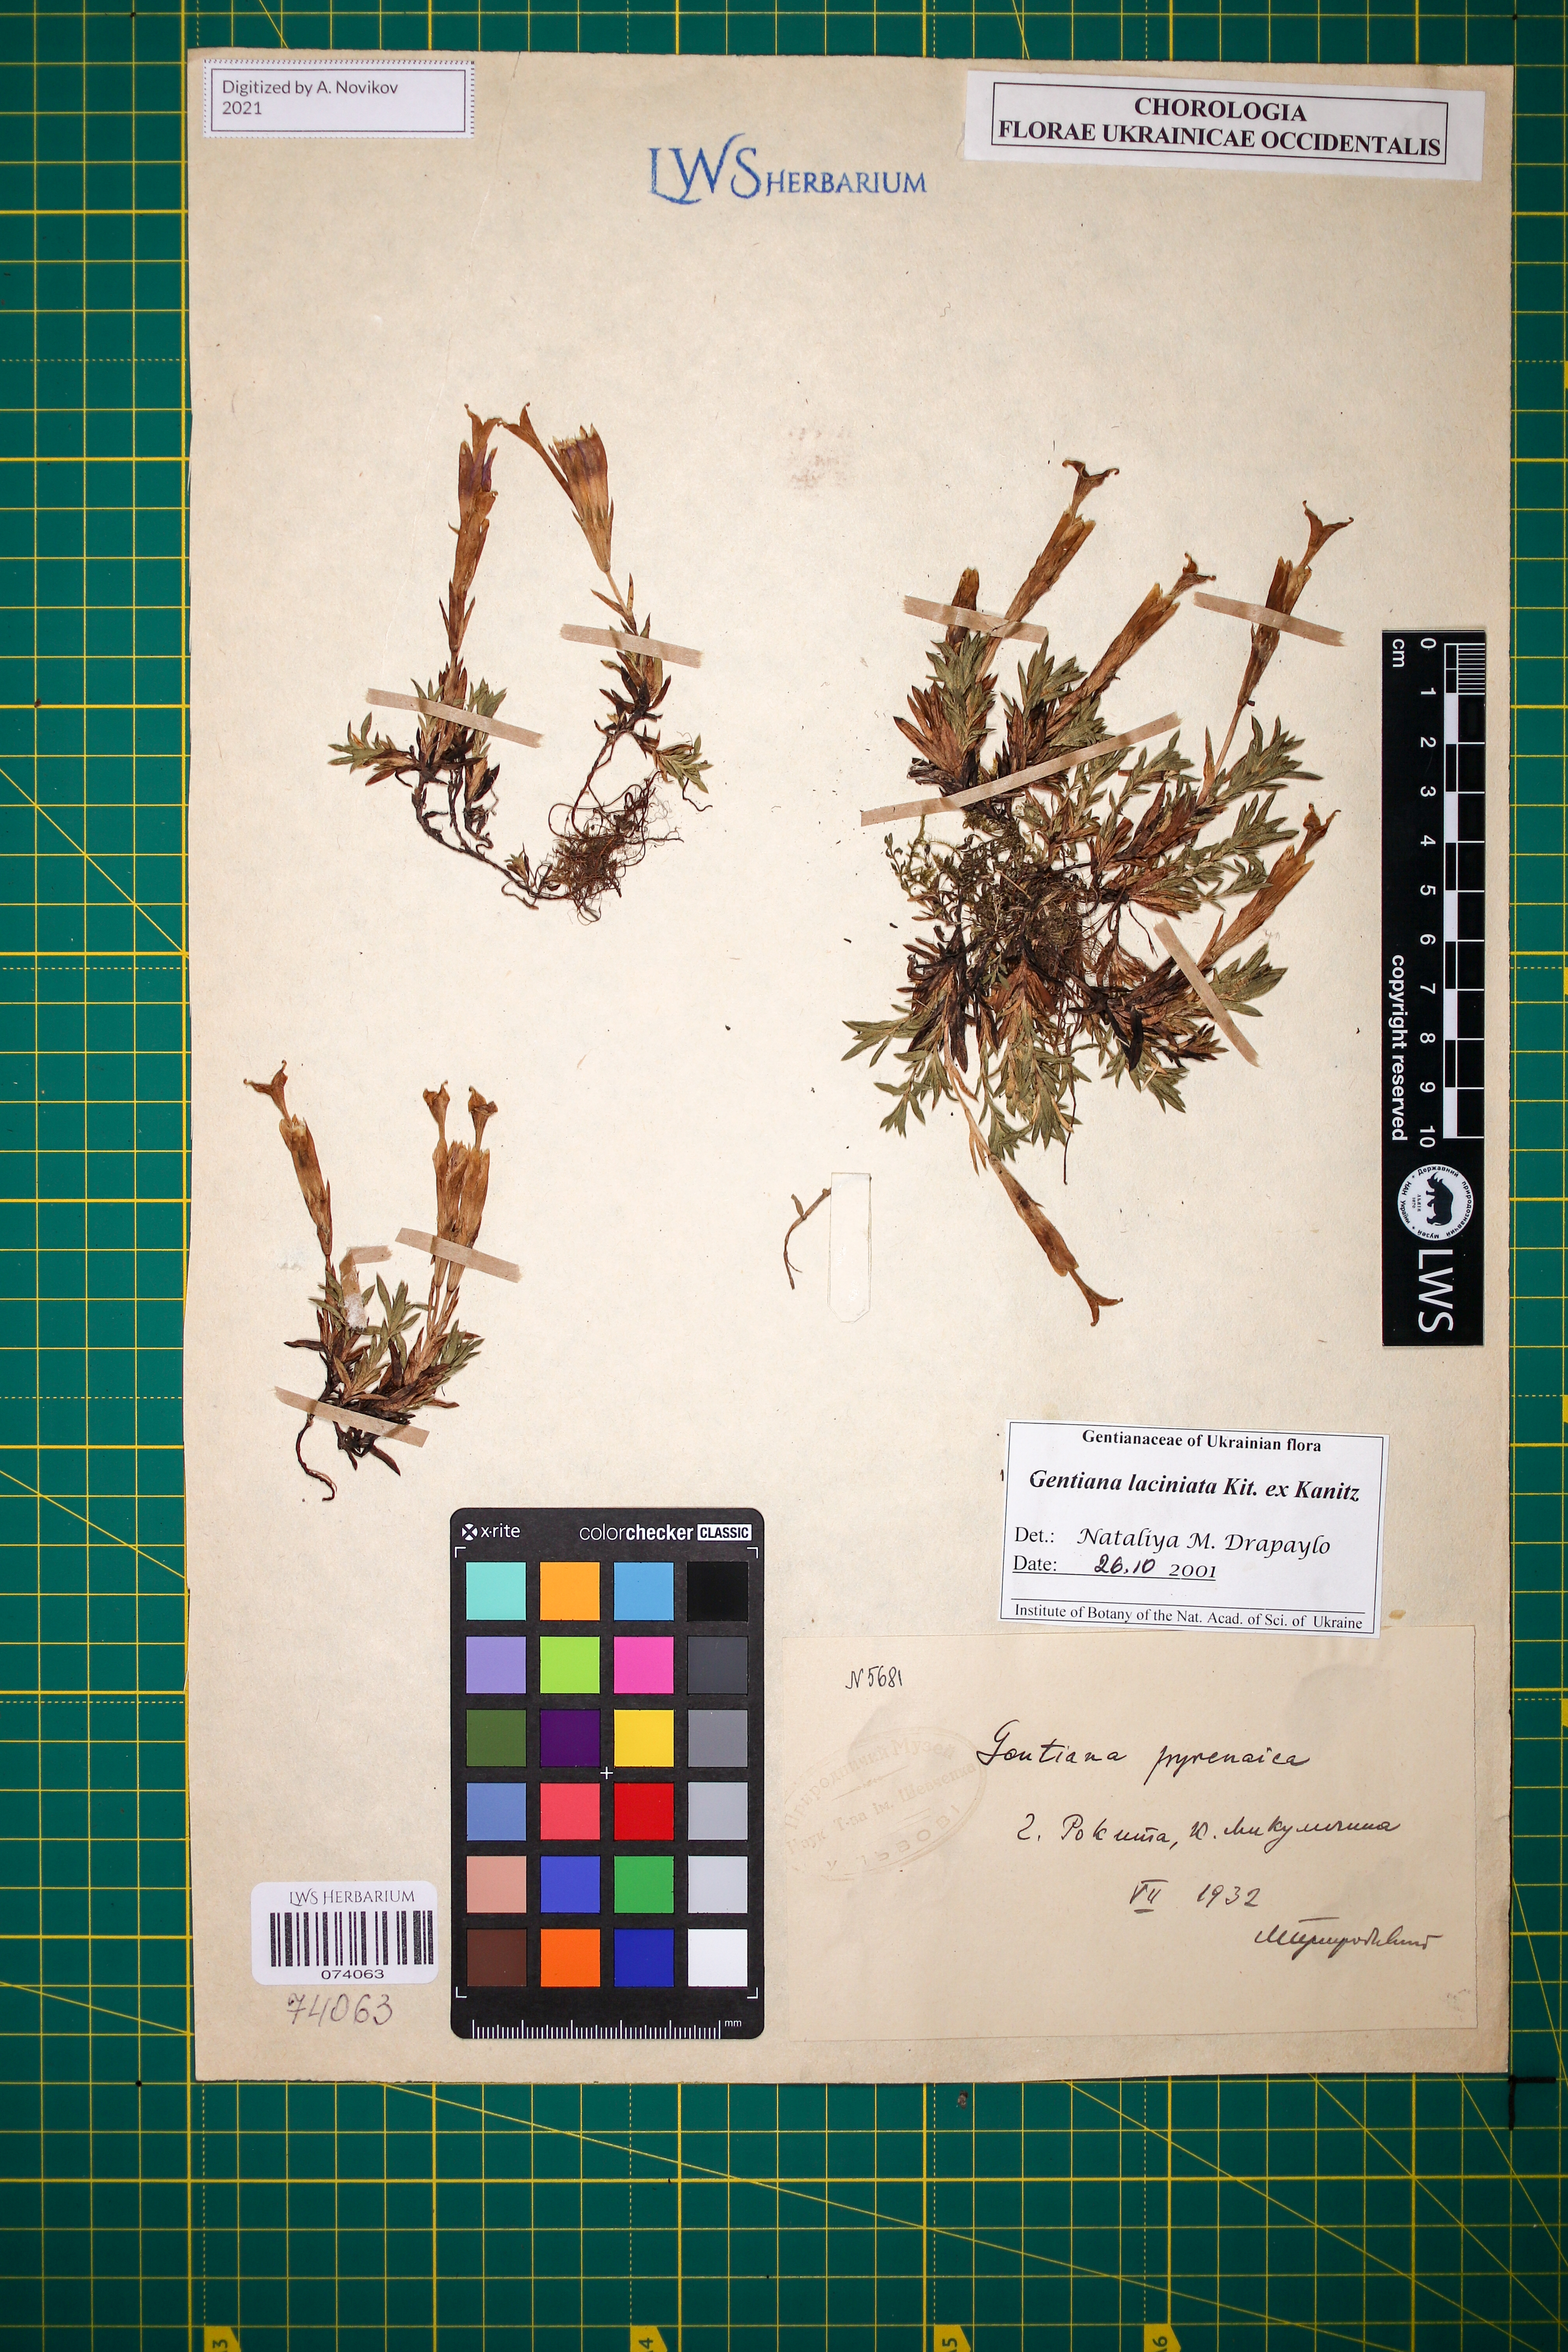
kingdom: Plantae
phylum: Tracheophyta
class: Magnoliopsida
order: Gentianales
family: Gentianaceae
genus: Gentiana
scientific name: Gentiana laciniata
